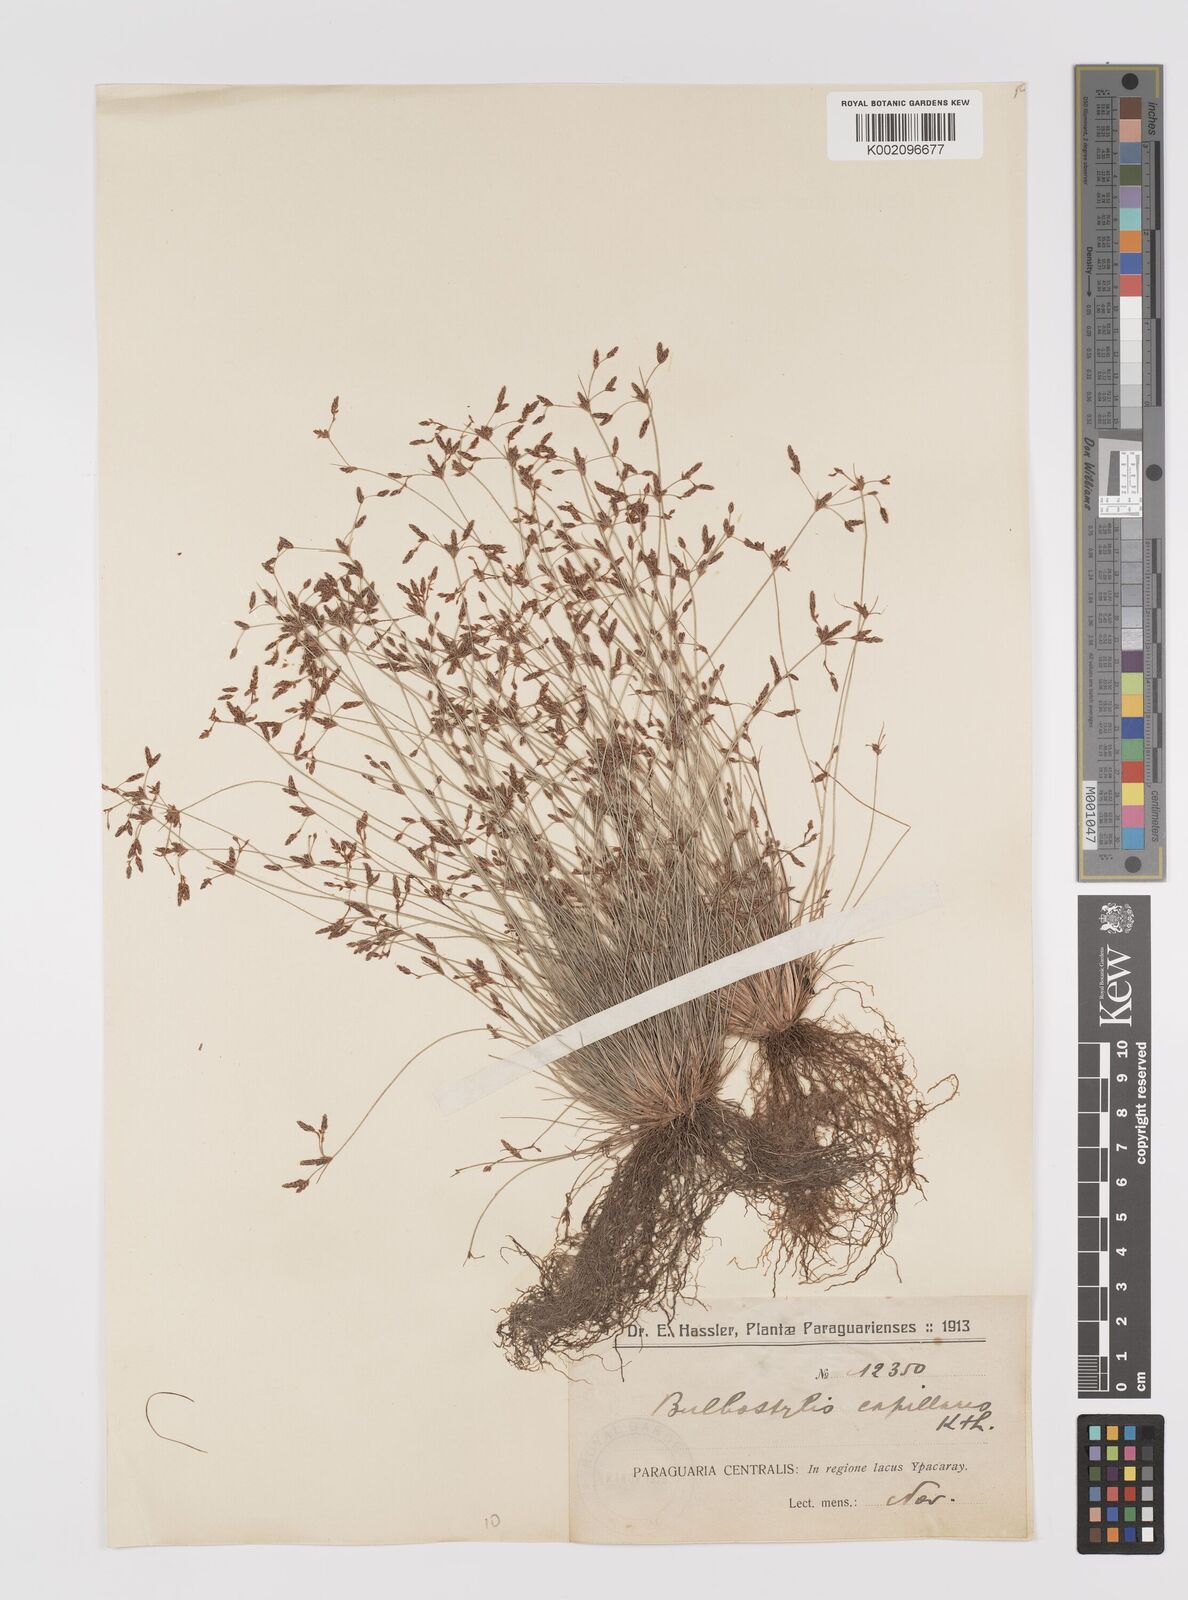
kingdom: Plantae
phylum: Tracheophyta
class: Liliopsida
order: Poales
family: Cyperaceae
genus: Bulbostylis
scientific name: Bulbostylis capillaris
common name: Densetuft hairsedge
